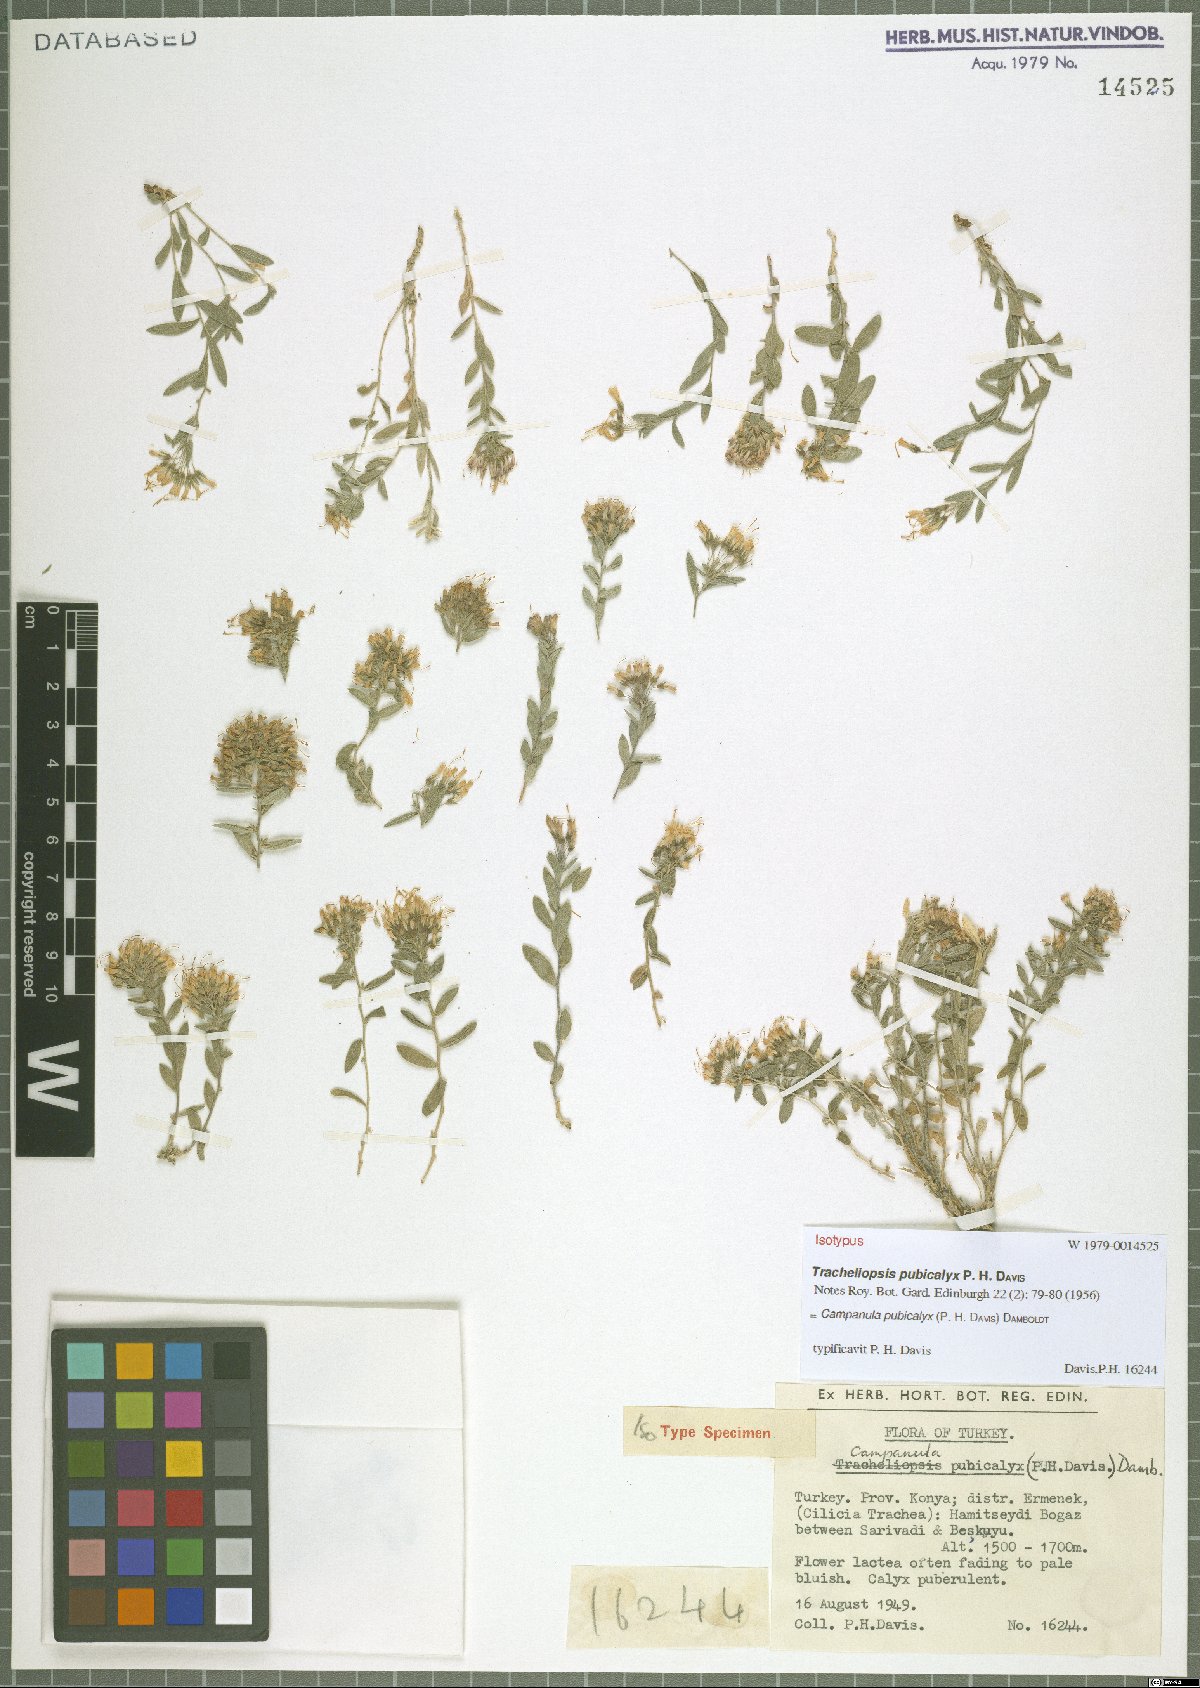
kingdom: Plantae
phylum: Tracheophyta
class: Magnoliopsida
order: Asterales
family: Campanulaceae
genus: Campanula
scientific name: Campanula pubicalyx
